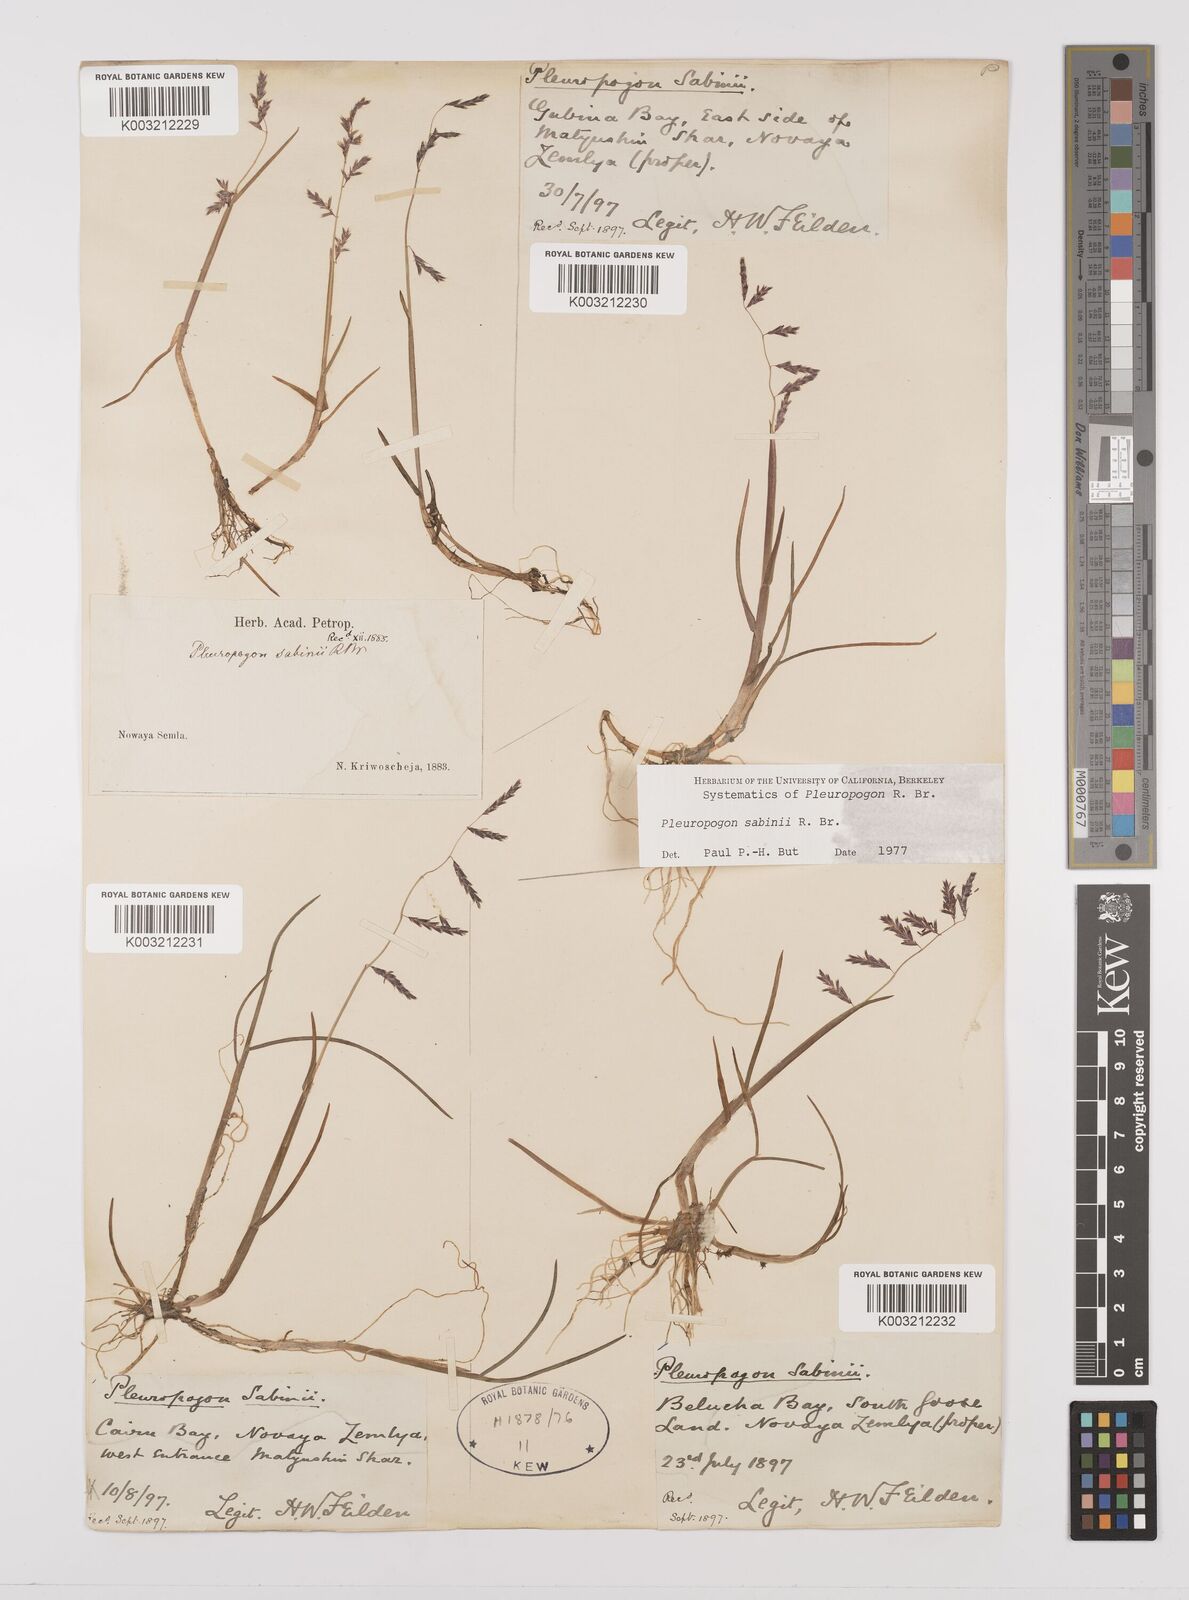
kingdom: Plantae
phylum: Tracheophyta
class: Liliopsida
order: Poales
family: Poaceae
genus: Pleuropogon
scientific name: Pleuropogon sabinei
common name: Sabine's false semaphoregrass
